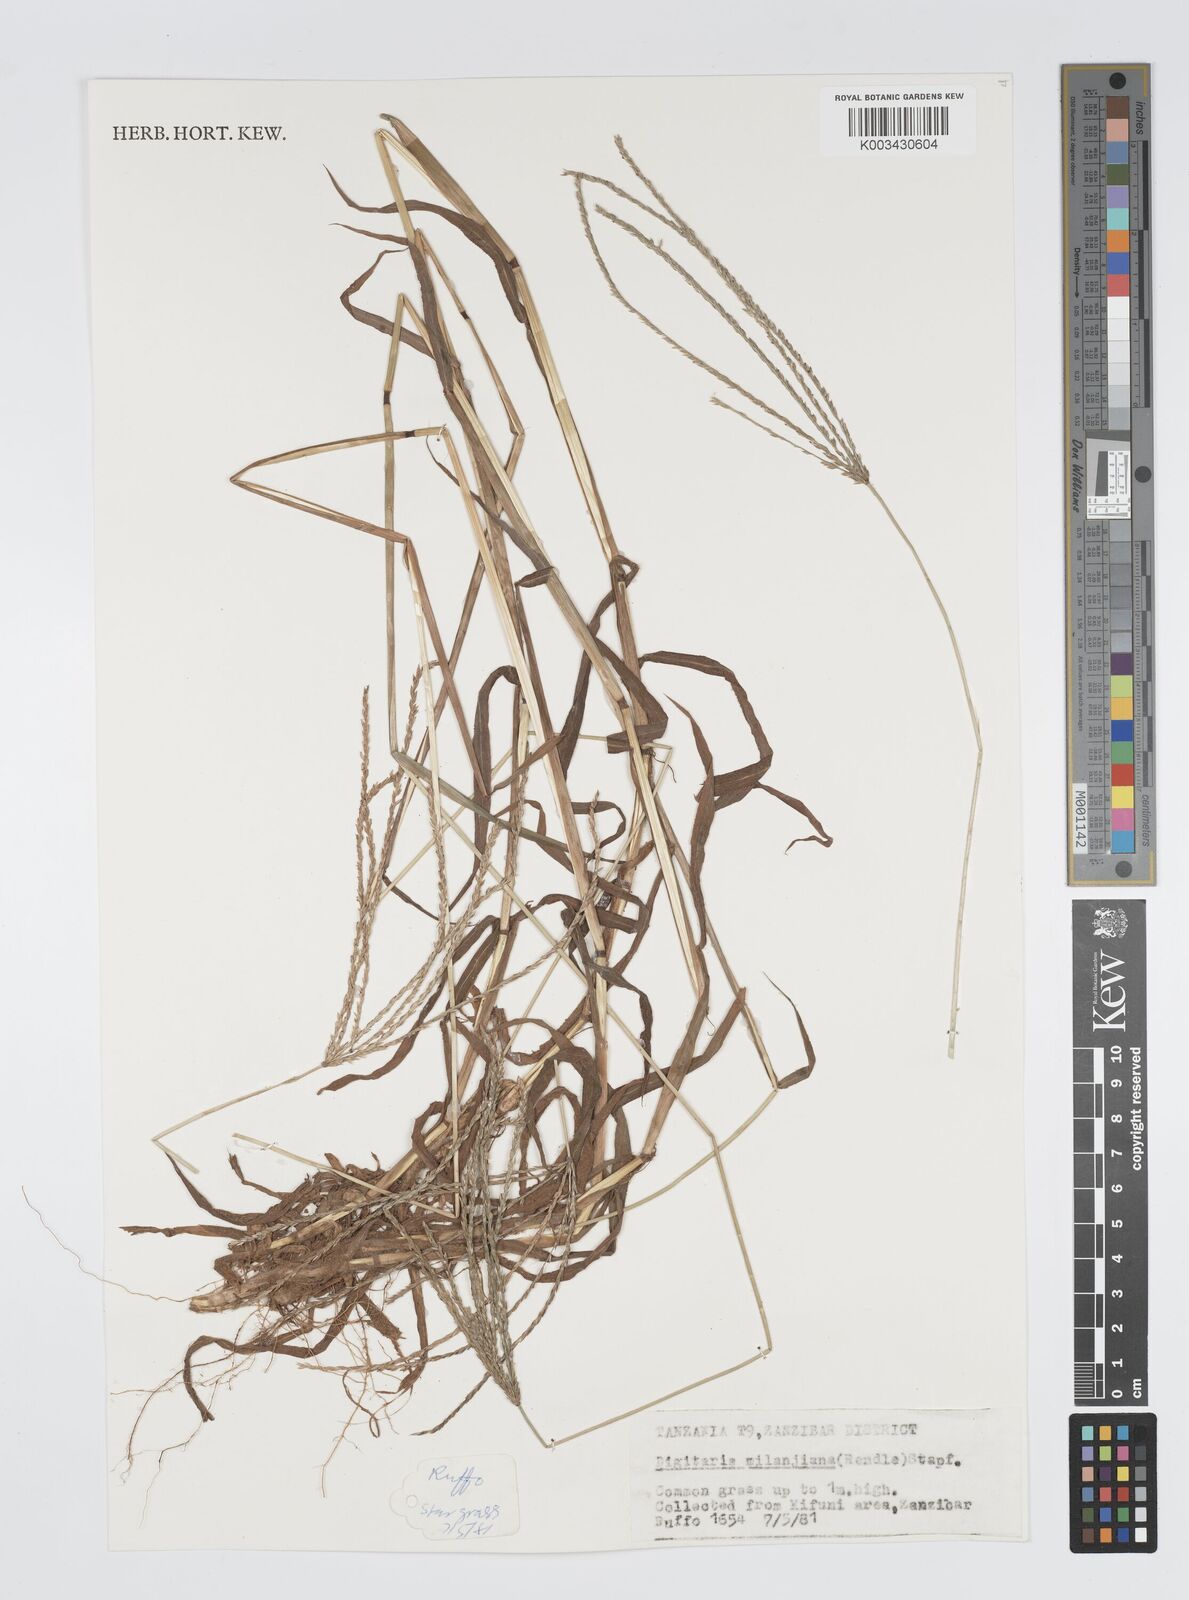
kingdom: Plantae
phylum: Tracheophyta
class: Liliopsida
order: Poales
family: Poaceae
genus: Digitaria
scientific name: Digitaria milanjiana
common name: Madagascar crabgrass
